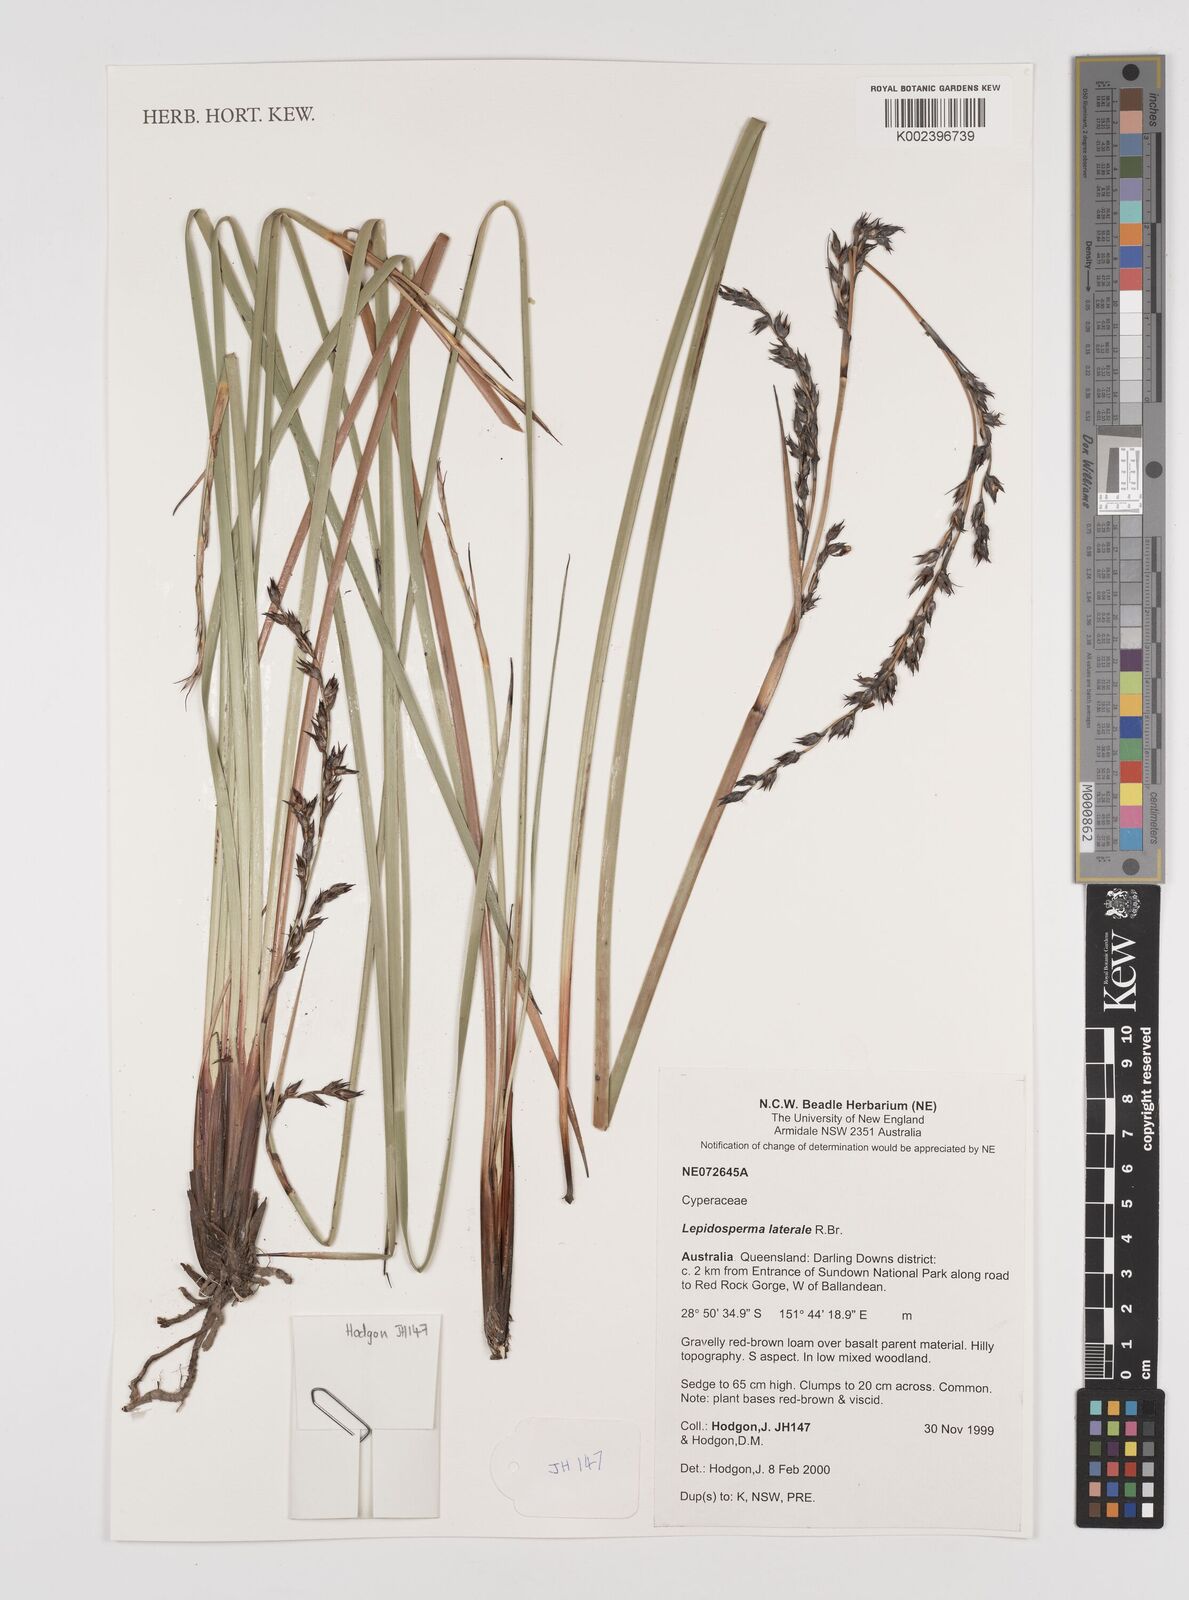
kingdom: Plantae
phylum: Tracheophyta
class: Liliopsida
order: Poales
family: Cyperaceae
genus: Lepidosperma
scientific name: Lepidosperma laterale
